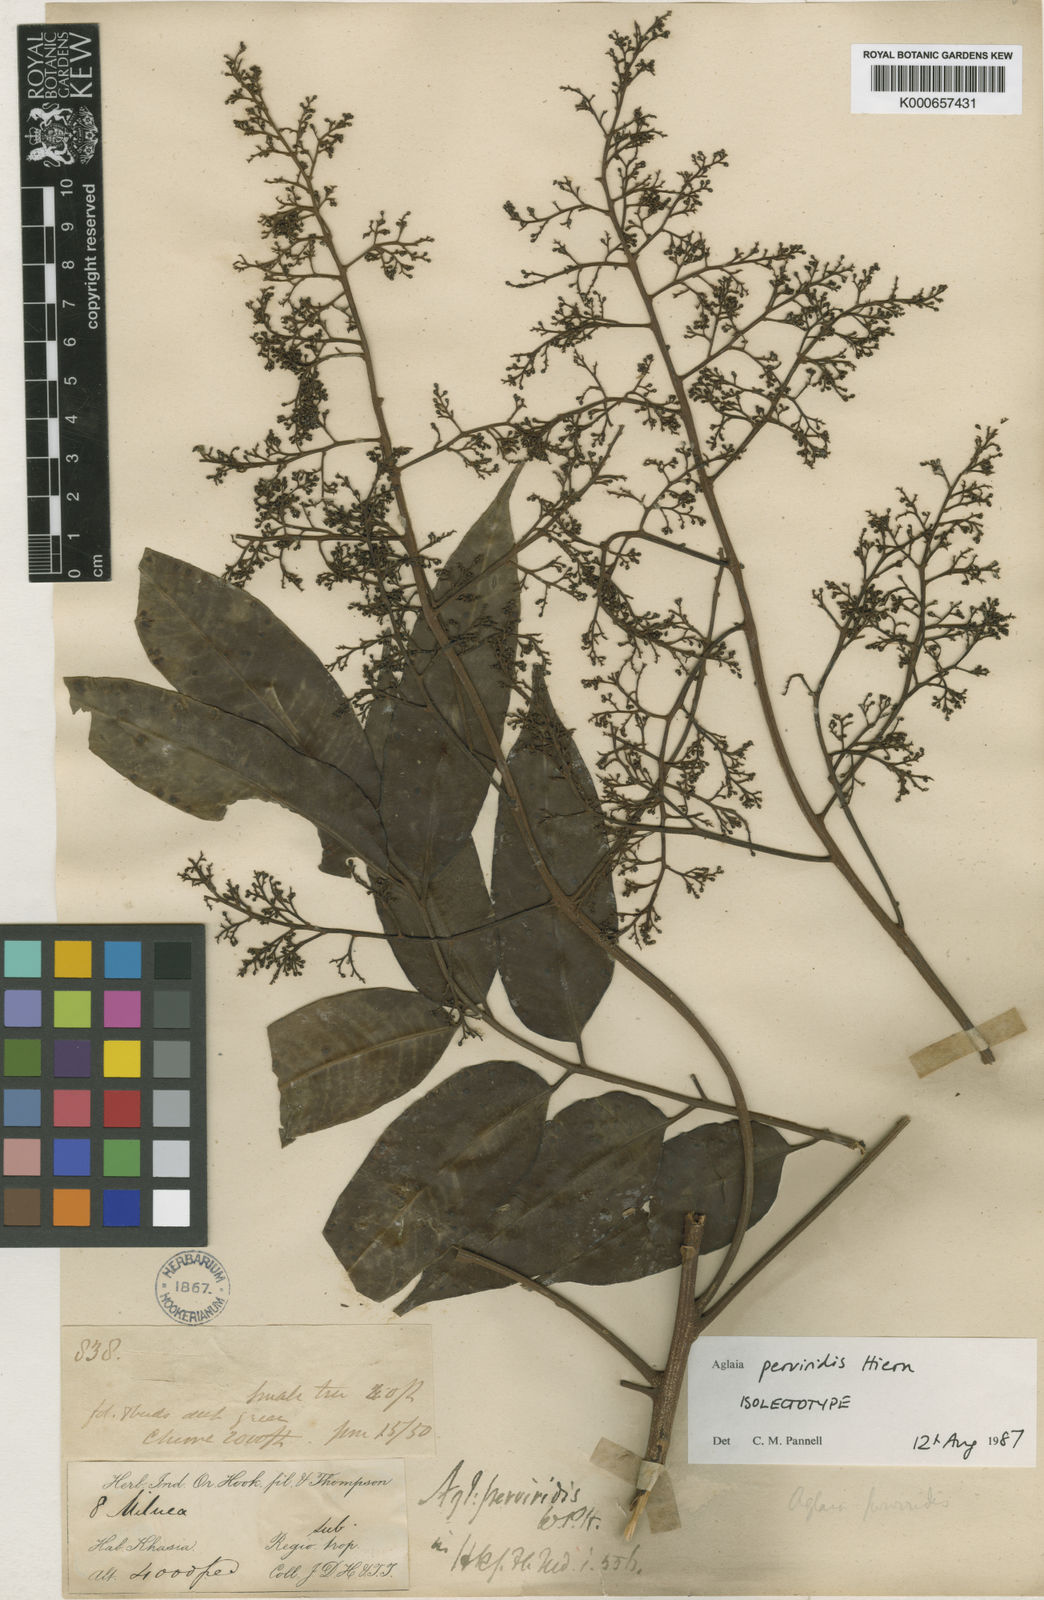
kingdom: Plantae
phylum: Tracheophyta
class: Magnoliopsida
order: Sapindales
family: Meliaceae
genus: Aglaia
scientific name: Aglaia perviridis
